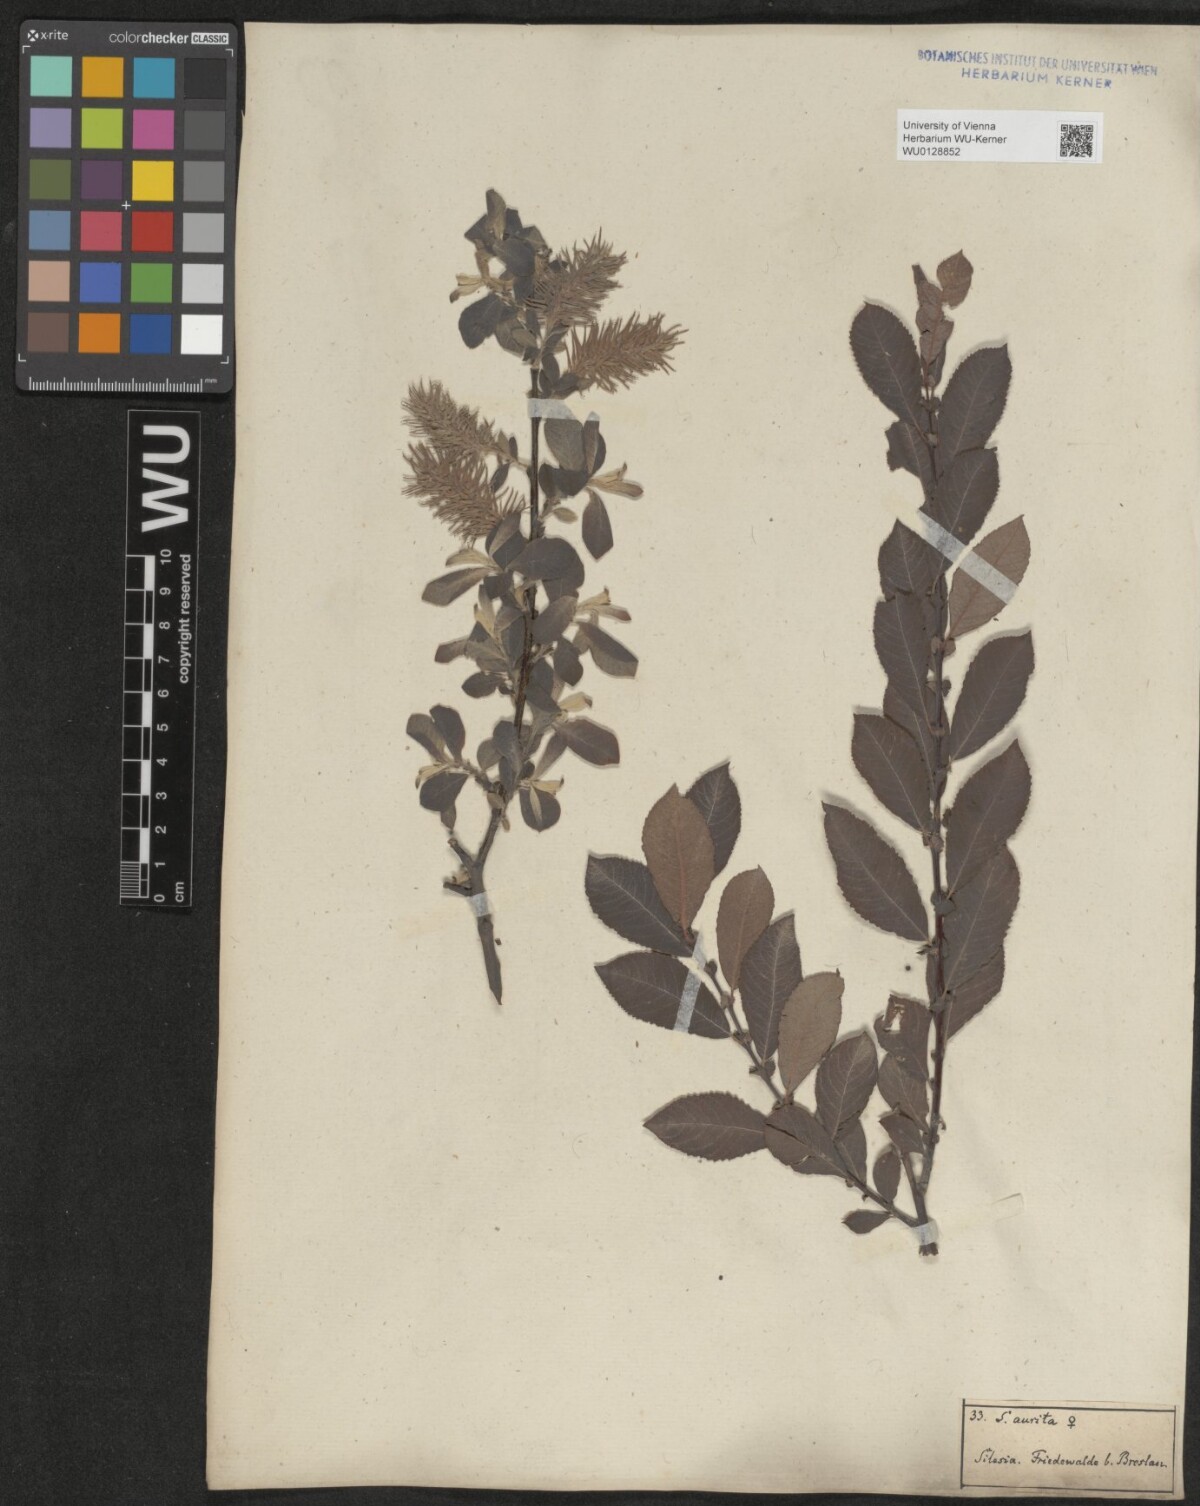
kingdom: Plantae
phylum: Tracheophyta
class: Magnoliopsida
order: Malpighiales
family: Salicaceae
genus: Salix
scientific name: Salix aurita
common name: Eared willow
